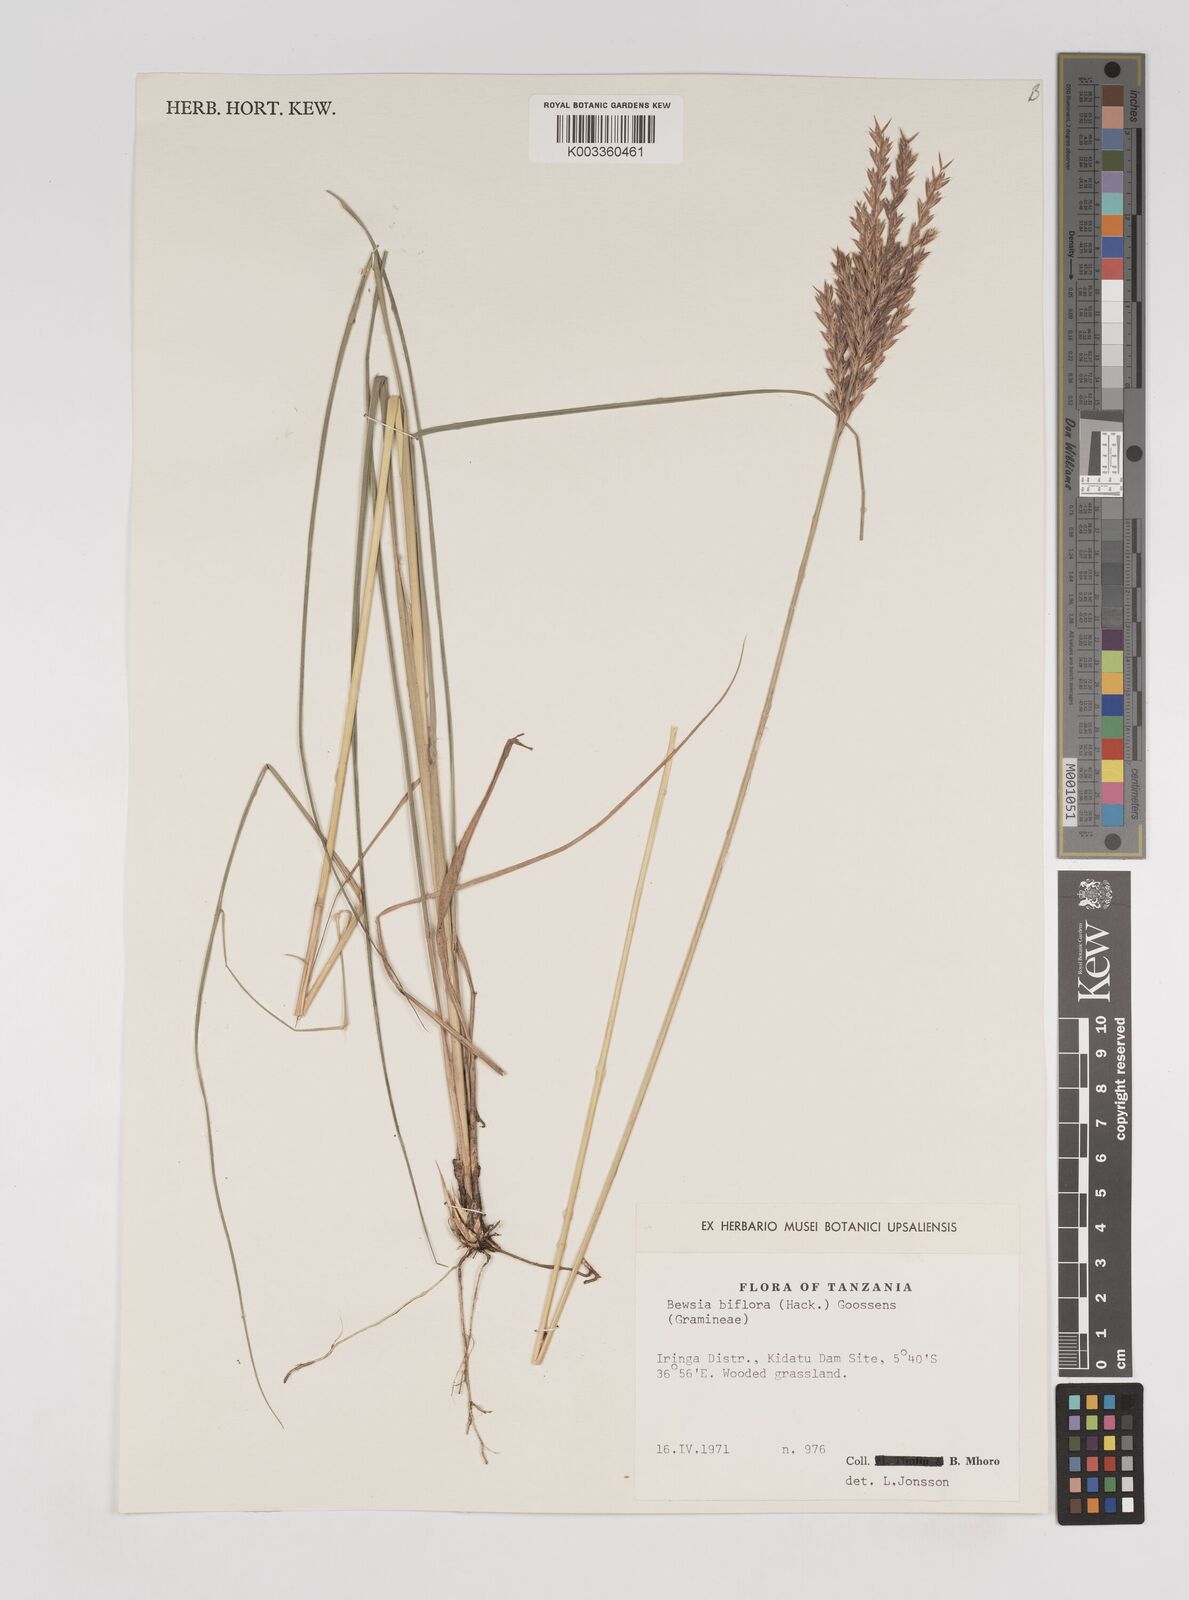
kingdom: Plantae
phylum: Tracheophyta
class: Liliopsida
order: Poales
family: Poaceae
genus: Bewsia
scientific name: Bewsia biflora
